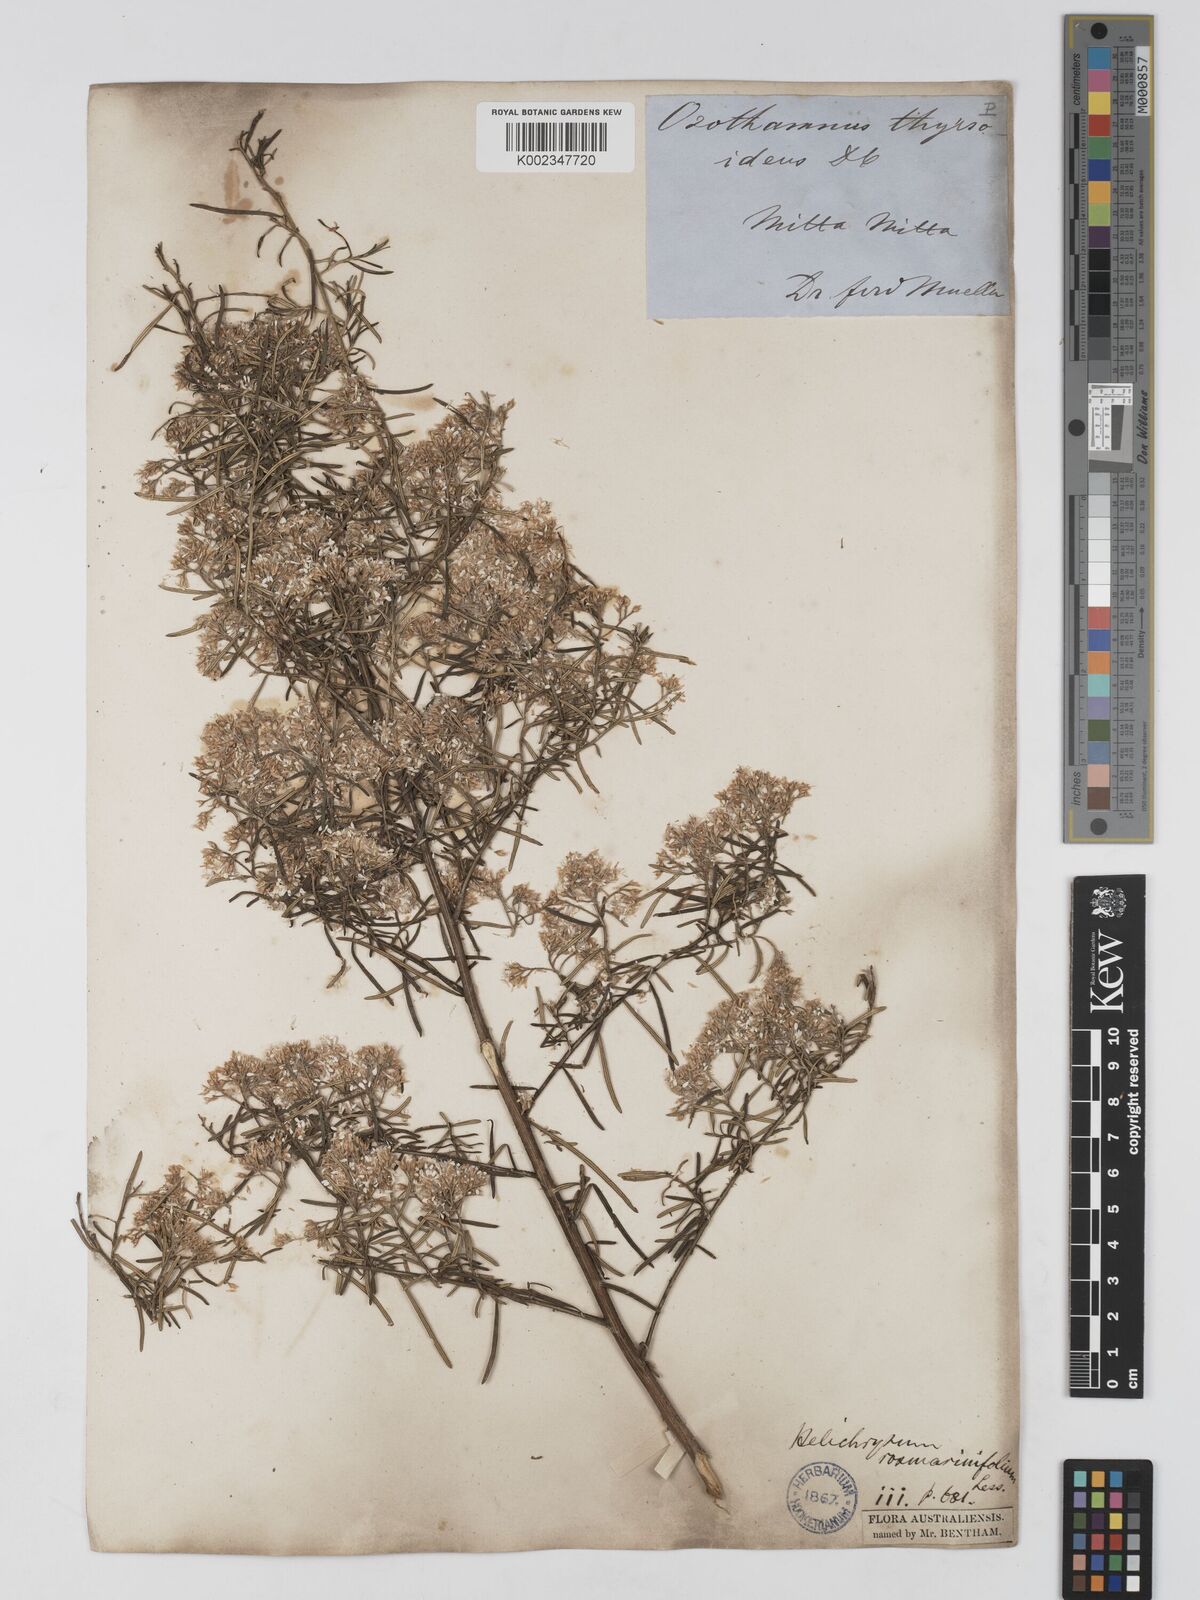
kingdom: Plantae
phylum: Tracheophyta
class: Magnoliopsida
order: Asterales
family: Asteraceae
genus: Ozothamnus
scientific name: Ozothamnus thyrsoideus
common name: Snow-in-summer
